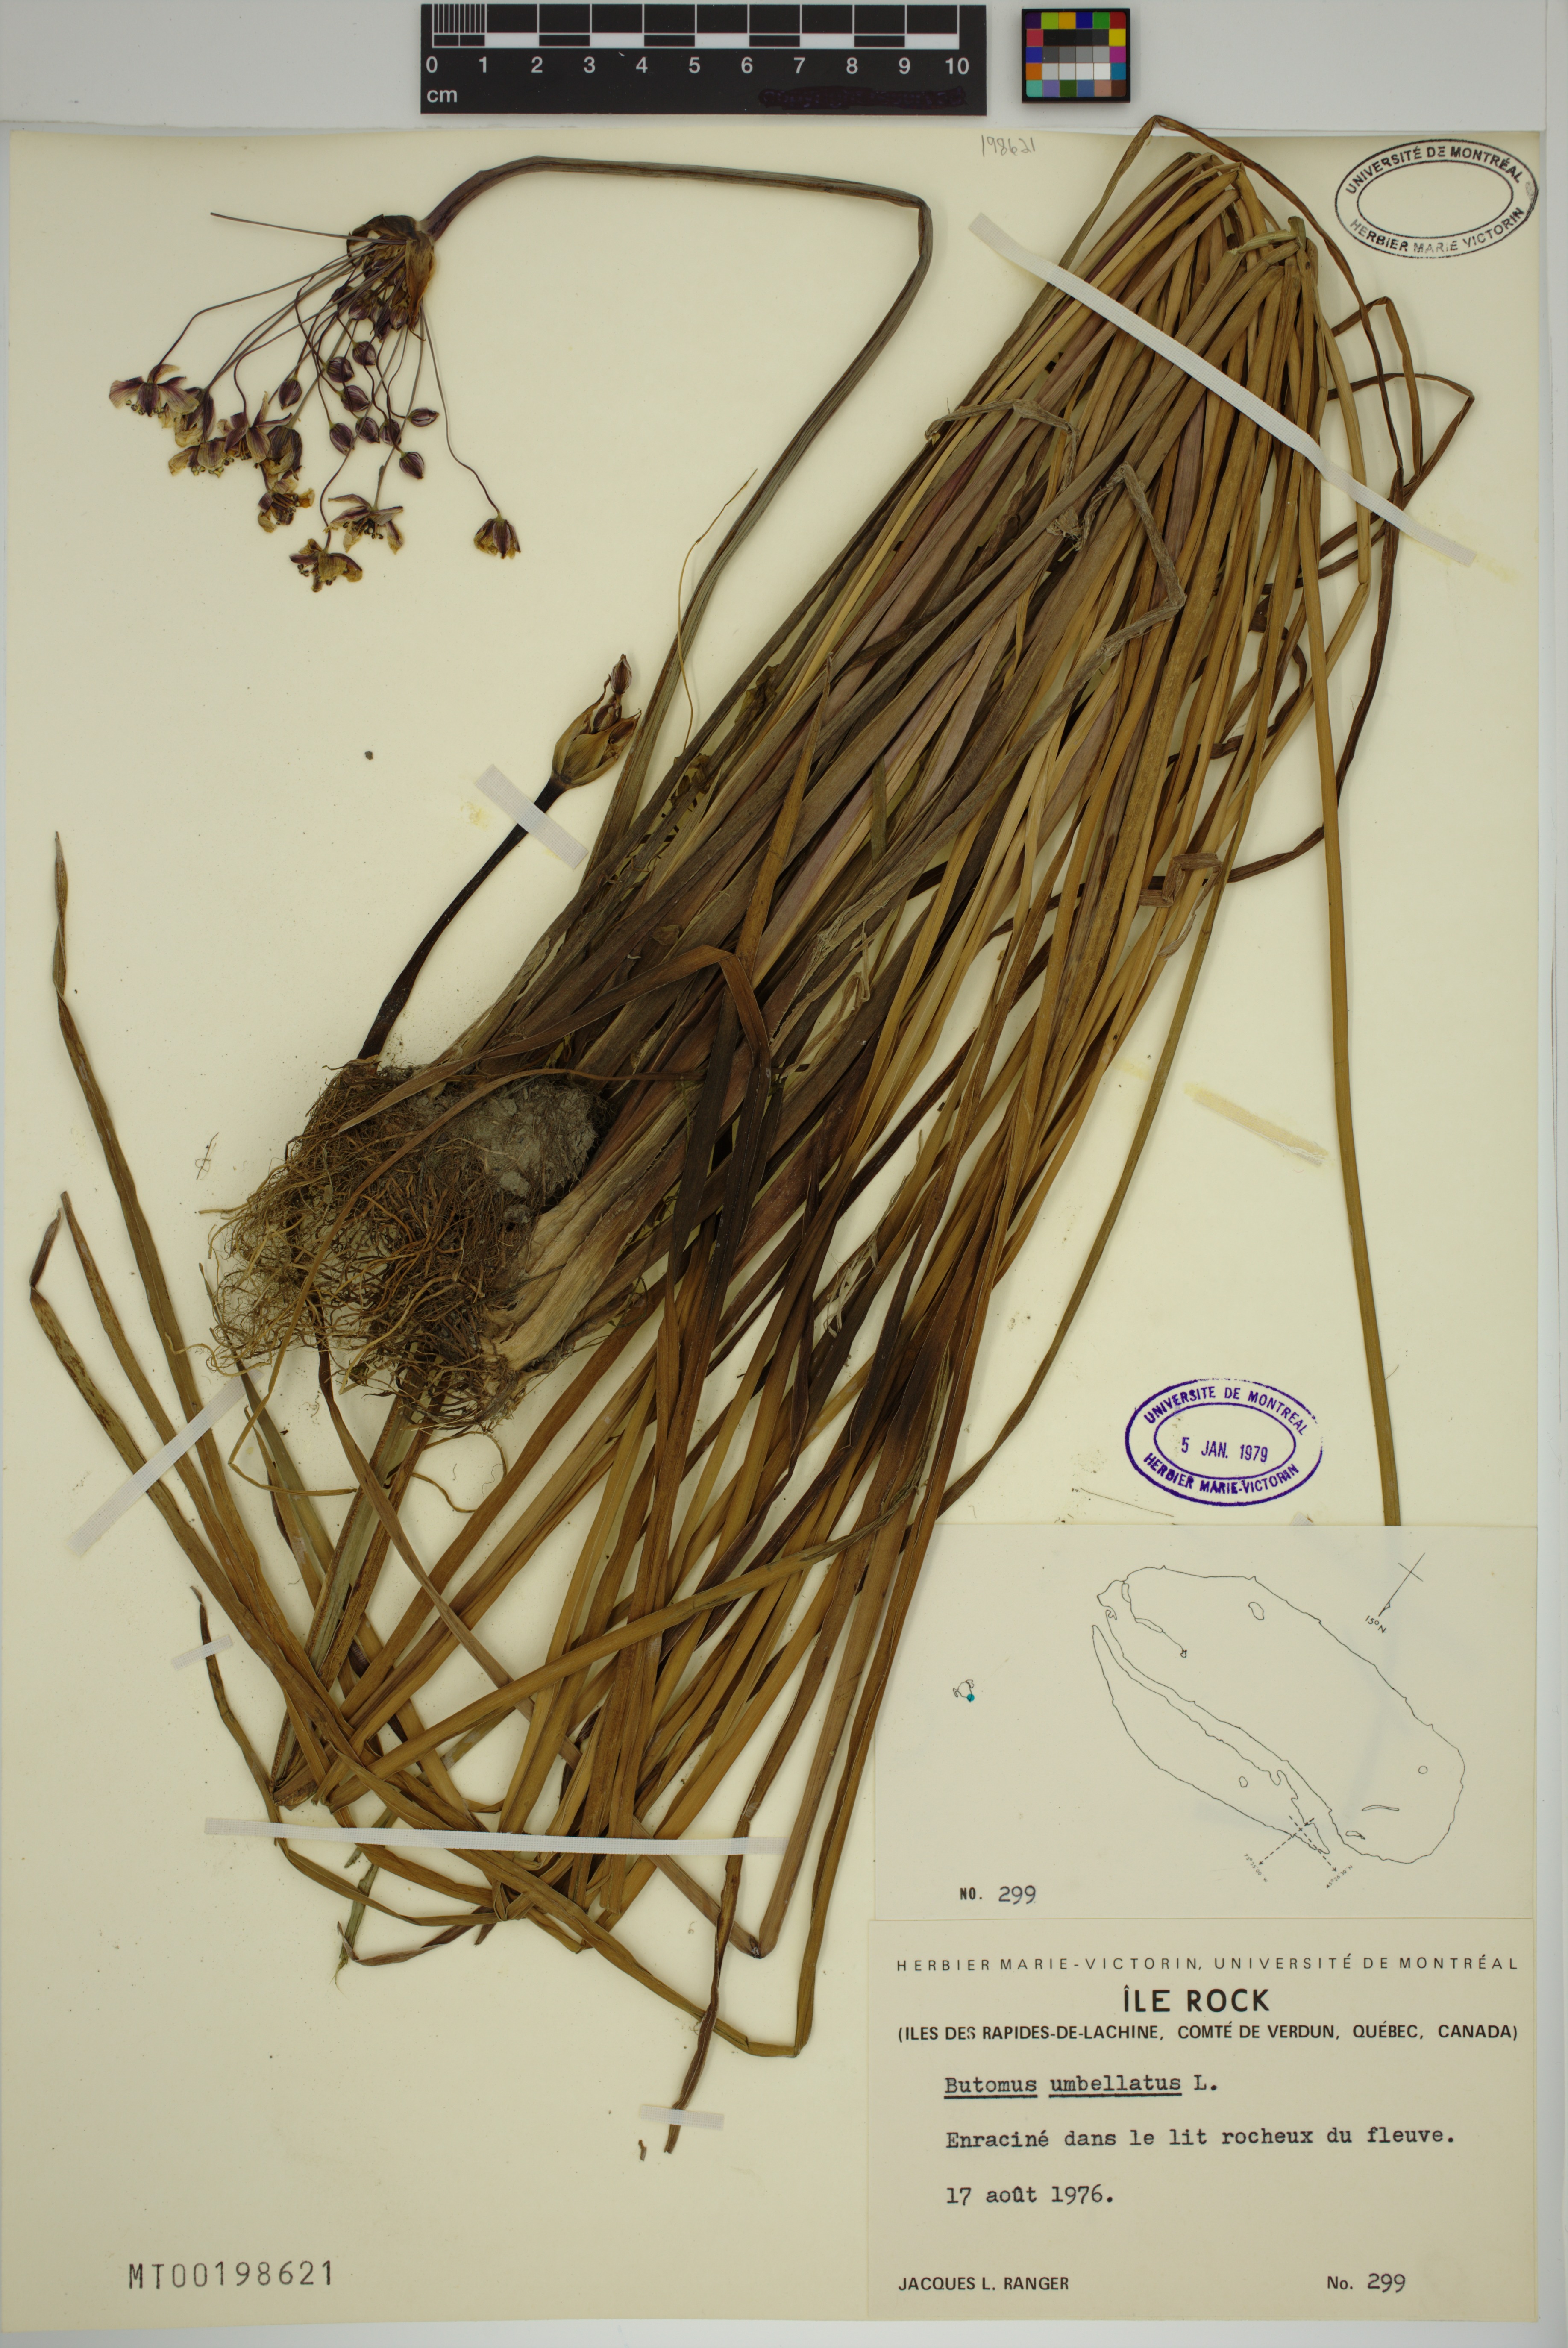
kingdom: Plantae
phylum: Tracheophyta
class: Liliopsida
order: Alismatales
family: Butomaceae
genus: Butomus
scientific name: Butomus umbellatus
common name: Flowering-rush
